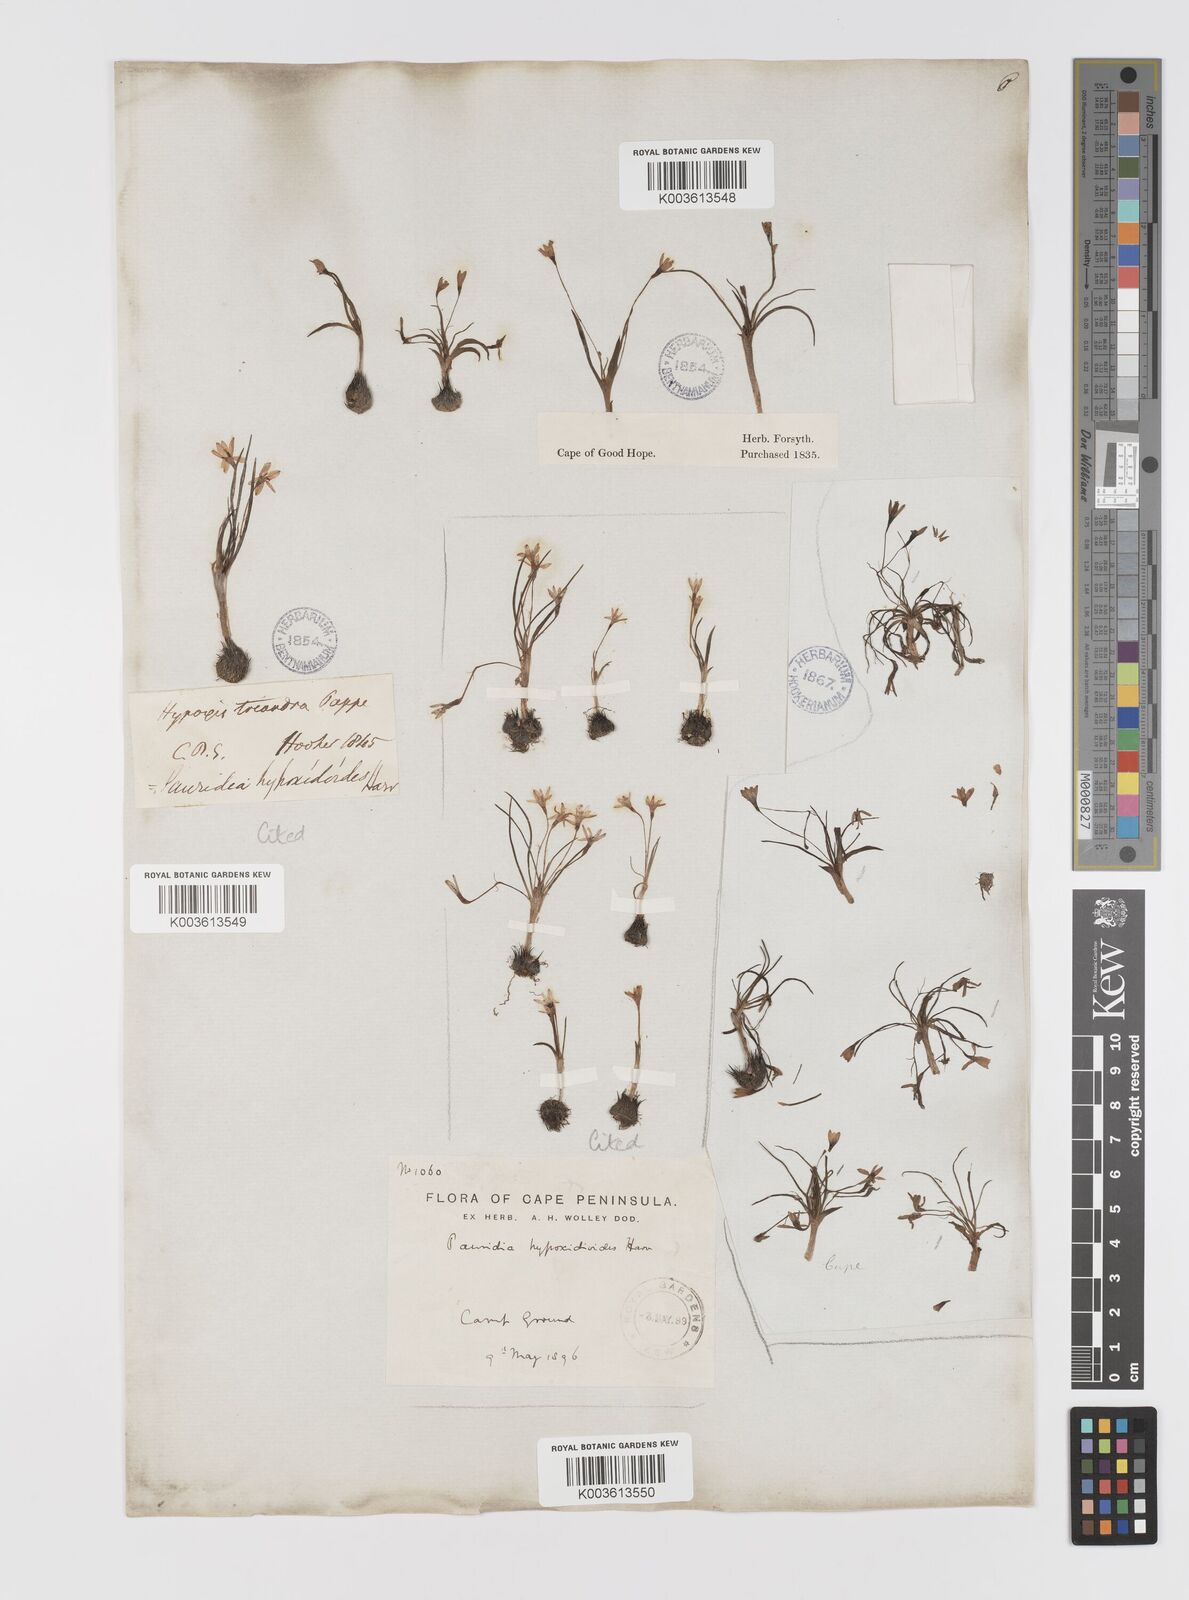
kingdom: Plantae
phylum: Tracheophyta
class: Liliopsida
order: Asparagales
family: Hypoxidaceae
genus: Pauridia
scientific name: Pauridia minuta
